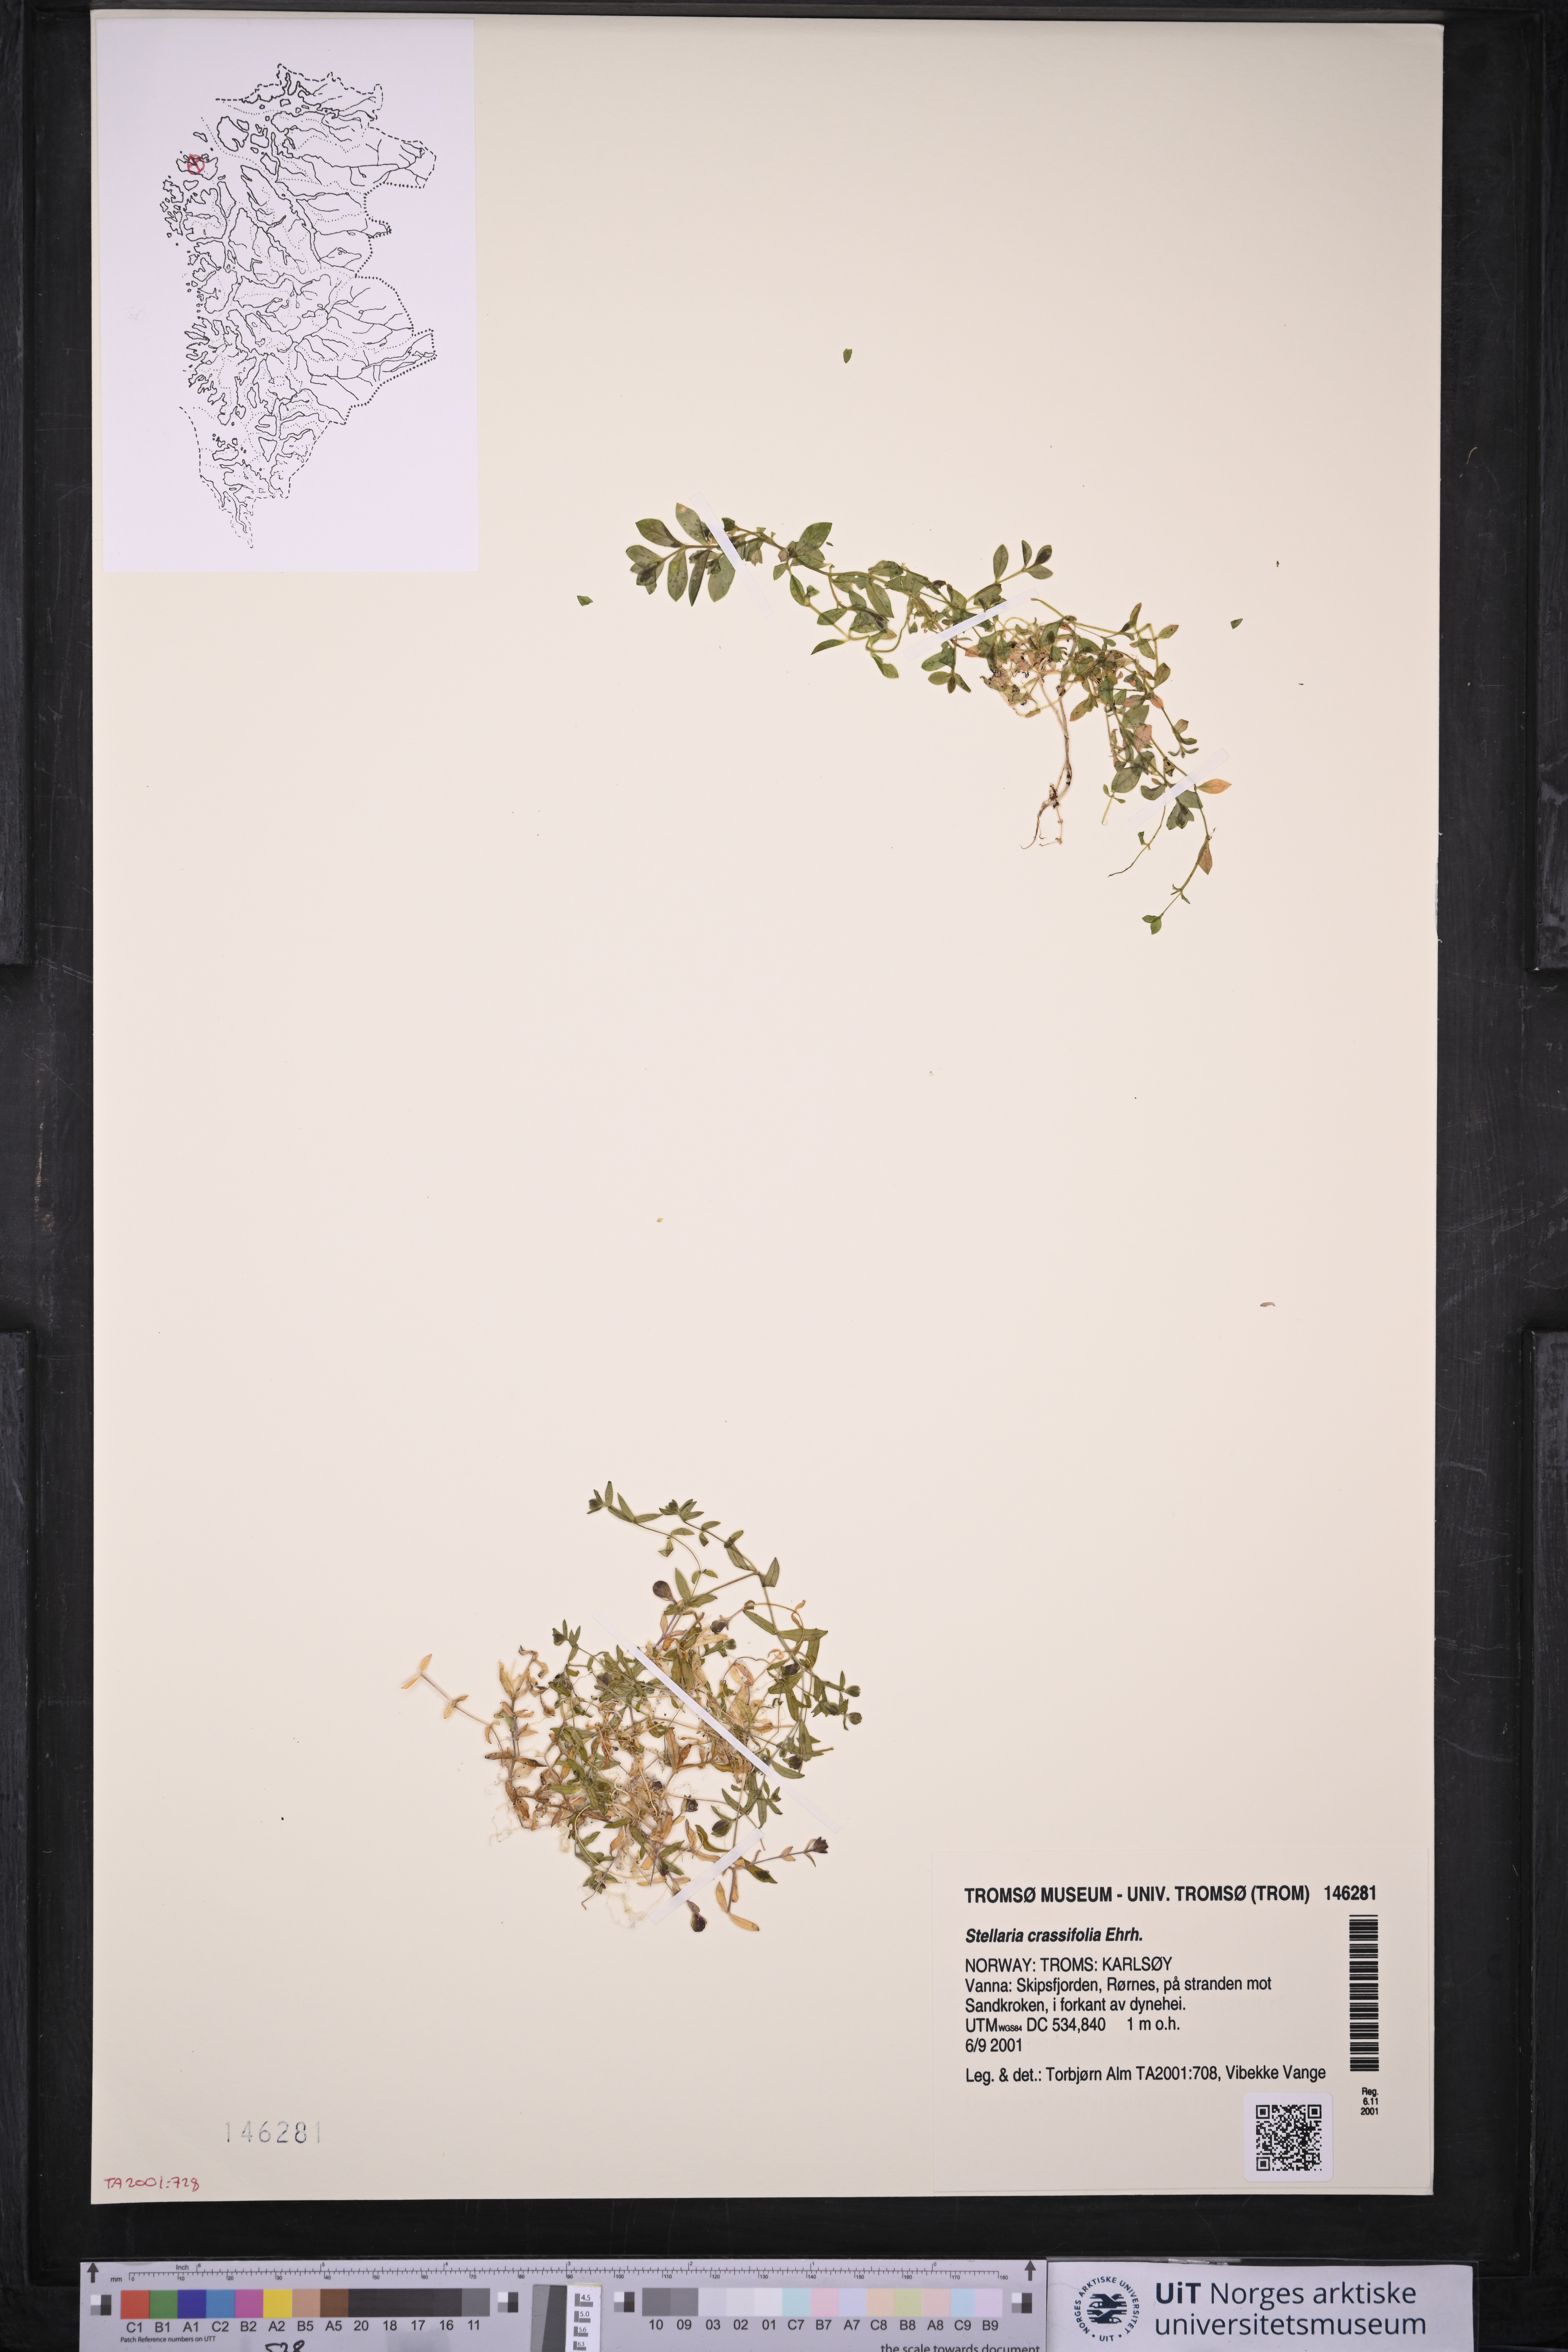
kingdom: Plantae
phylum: Tracheophyta
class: Magnoliopsida
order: Caryophyllales
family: Caryophyllaceae
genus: Stellaria
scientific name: Stellaria crassifolia
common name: Fleshy starwort
